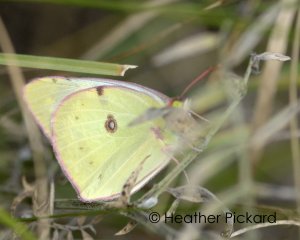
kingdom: Animalia
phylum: Arthropoda
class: Insecta
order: Lepidoptera
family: Pieridae
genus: Colias
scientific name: Colias philodice
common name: Clouded Sulphur
